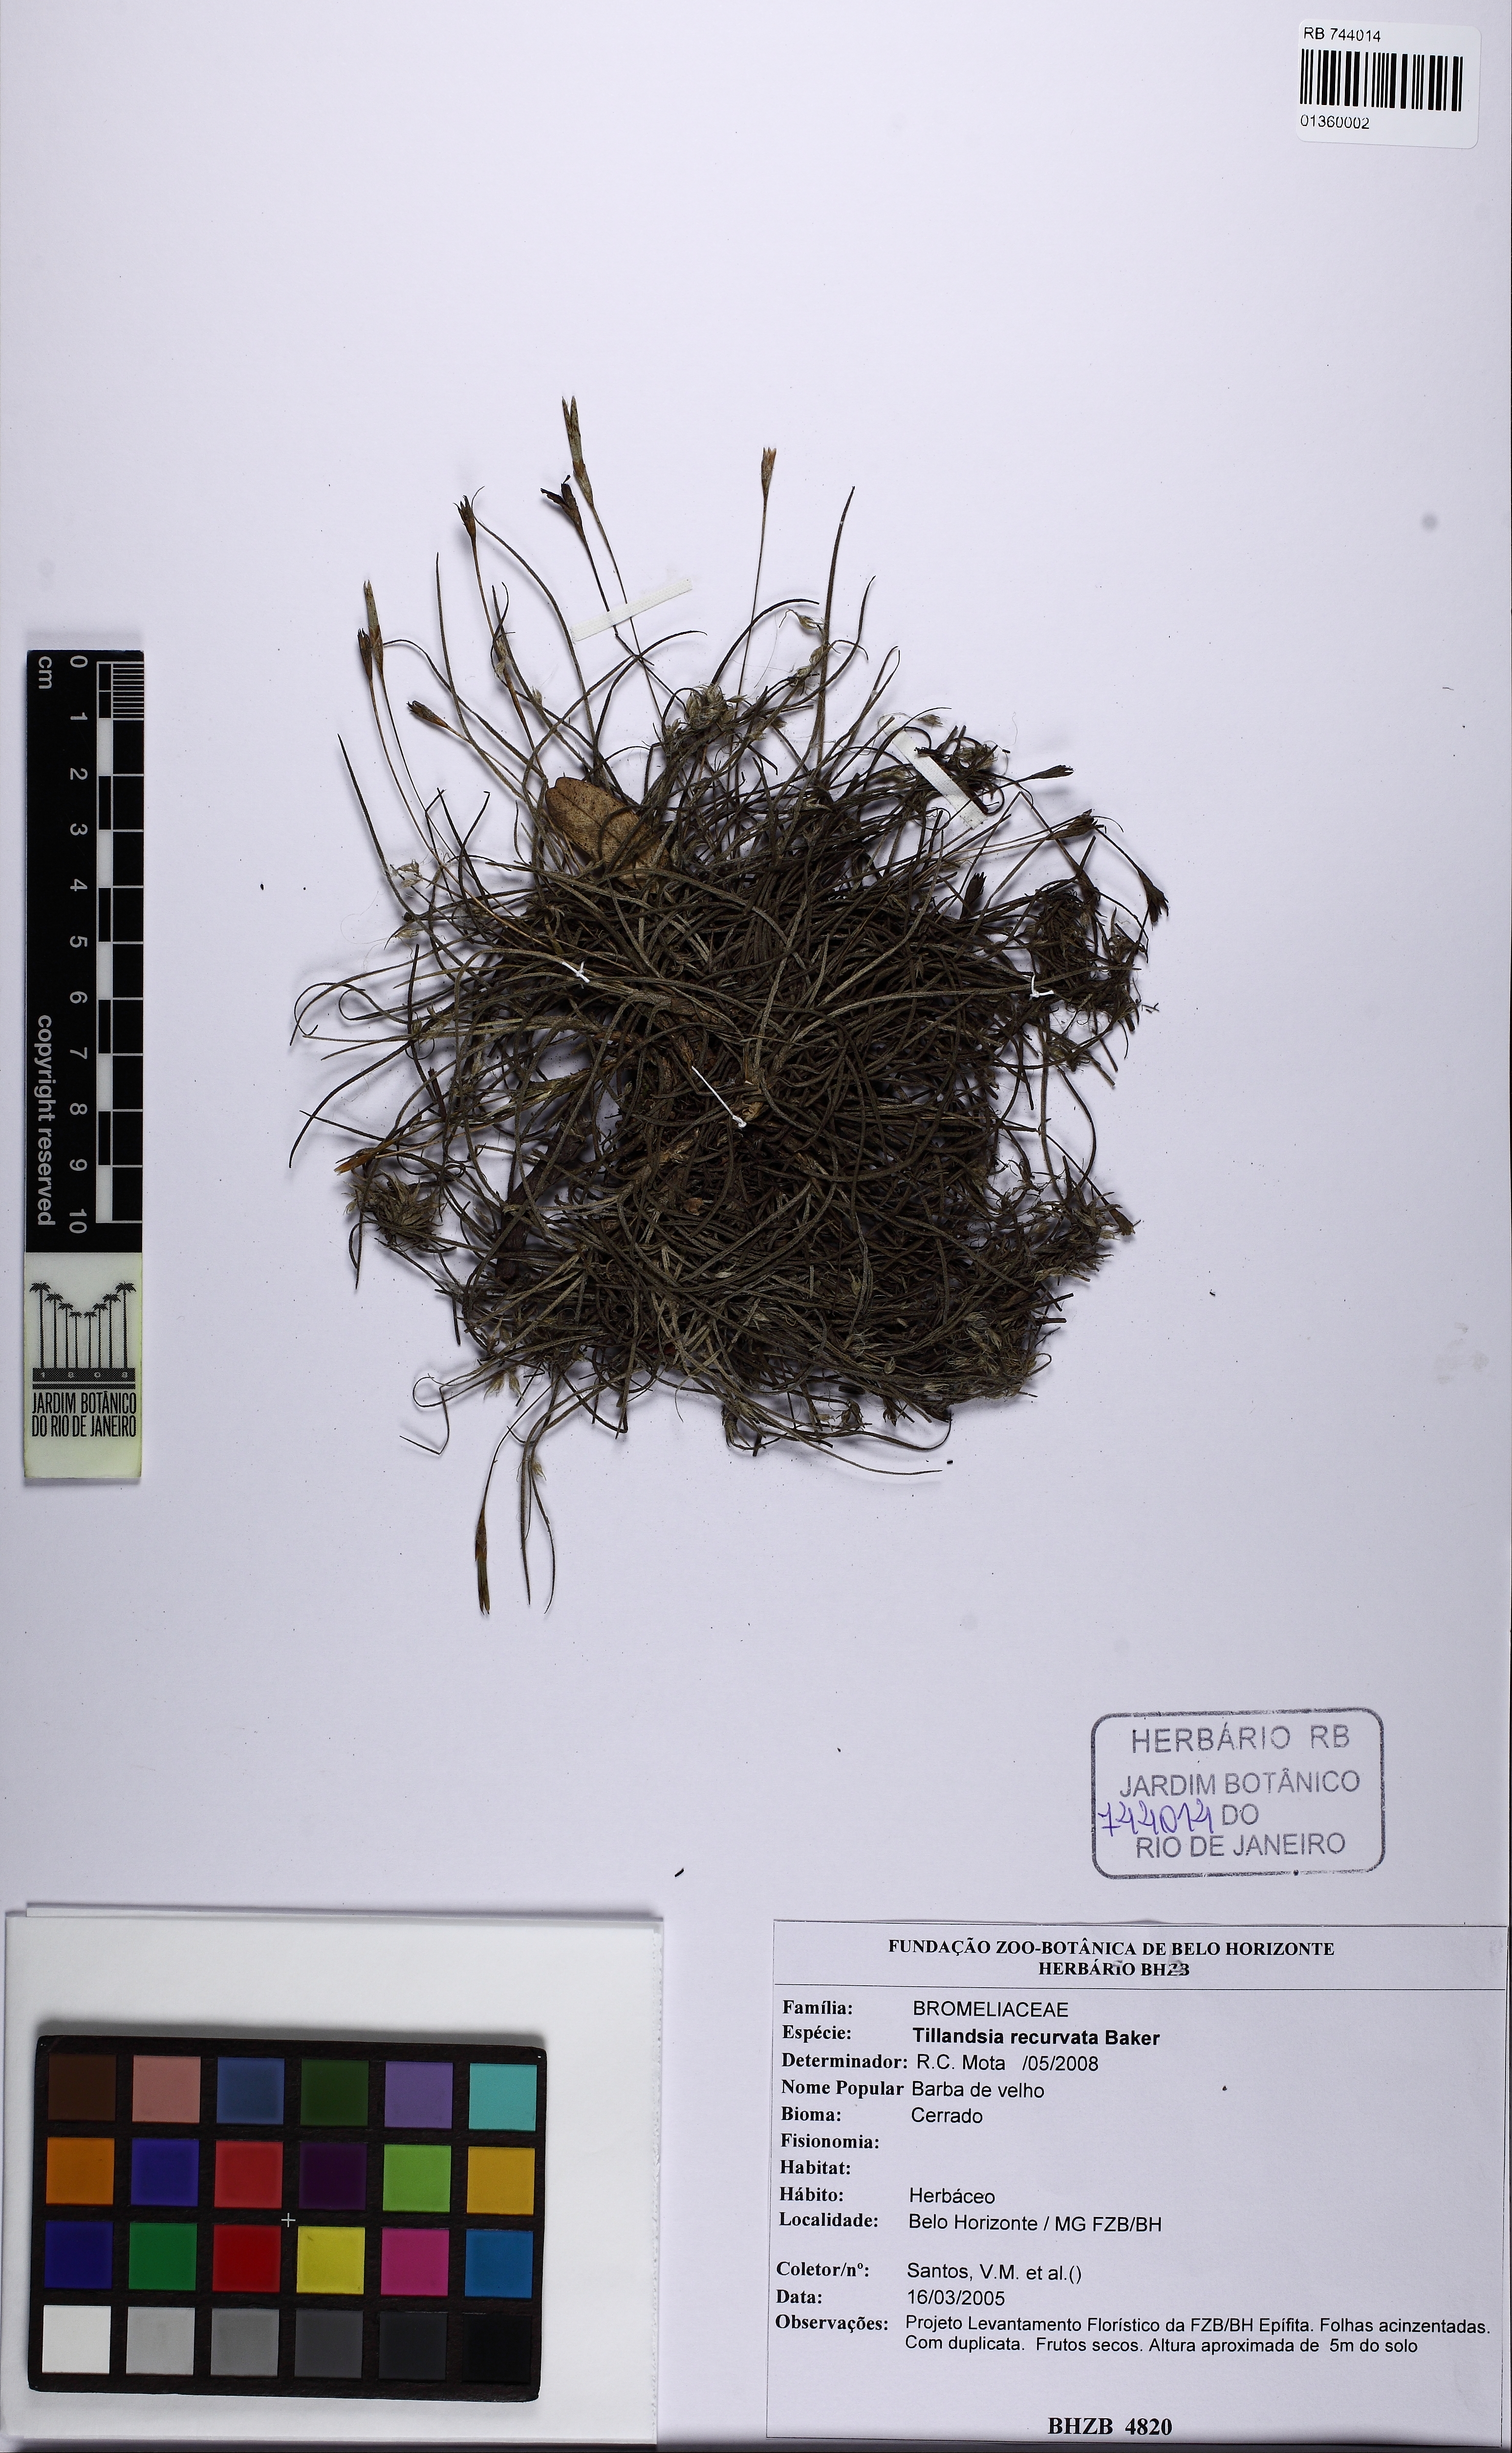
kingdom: Plantae
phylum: Tracheophyta
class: Liliopsida
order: Poales
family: Bromeliaceae
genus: Tillandsia
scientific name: Tillandsia recurvata
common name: Small ballmoss
